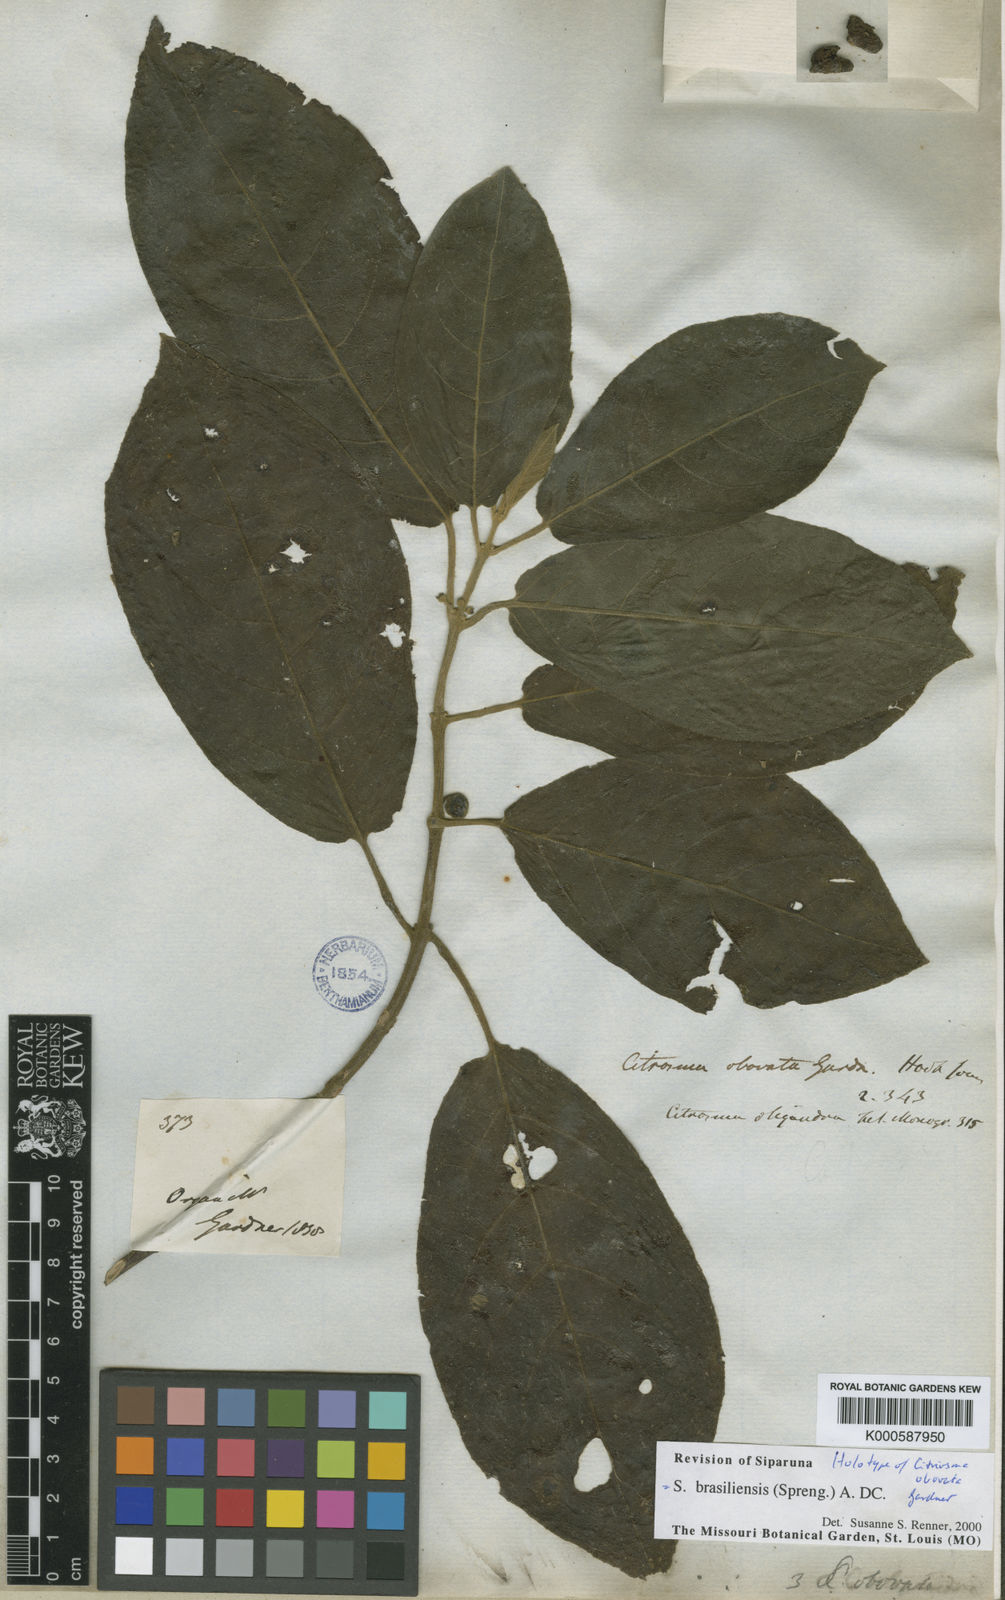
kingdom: Plantae
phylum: Tracheophyta
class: Magnoliopsida
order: Laurales
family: Siparunaceae
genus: Siparuna
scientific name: Siparuna brasiliensis
